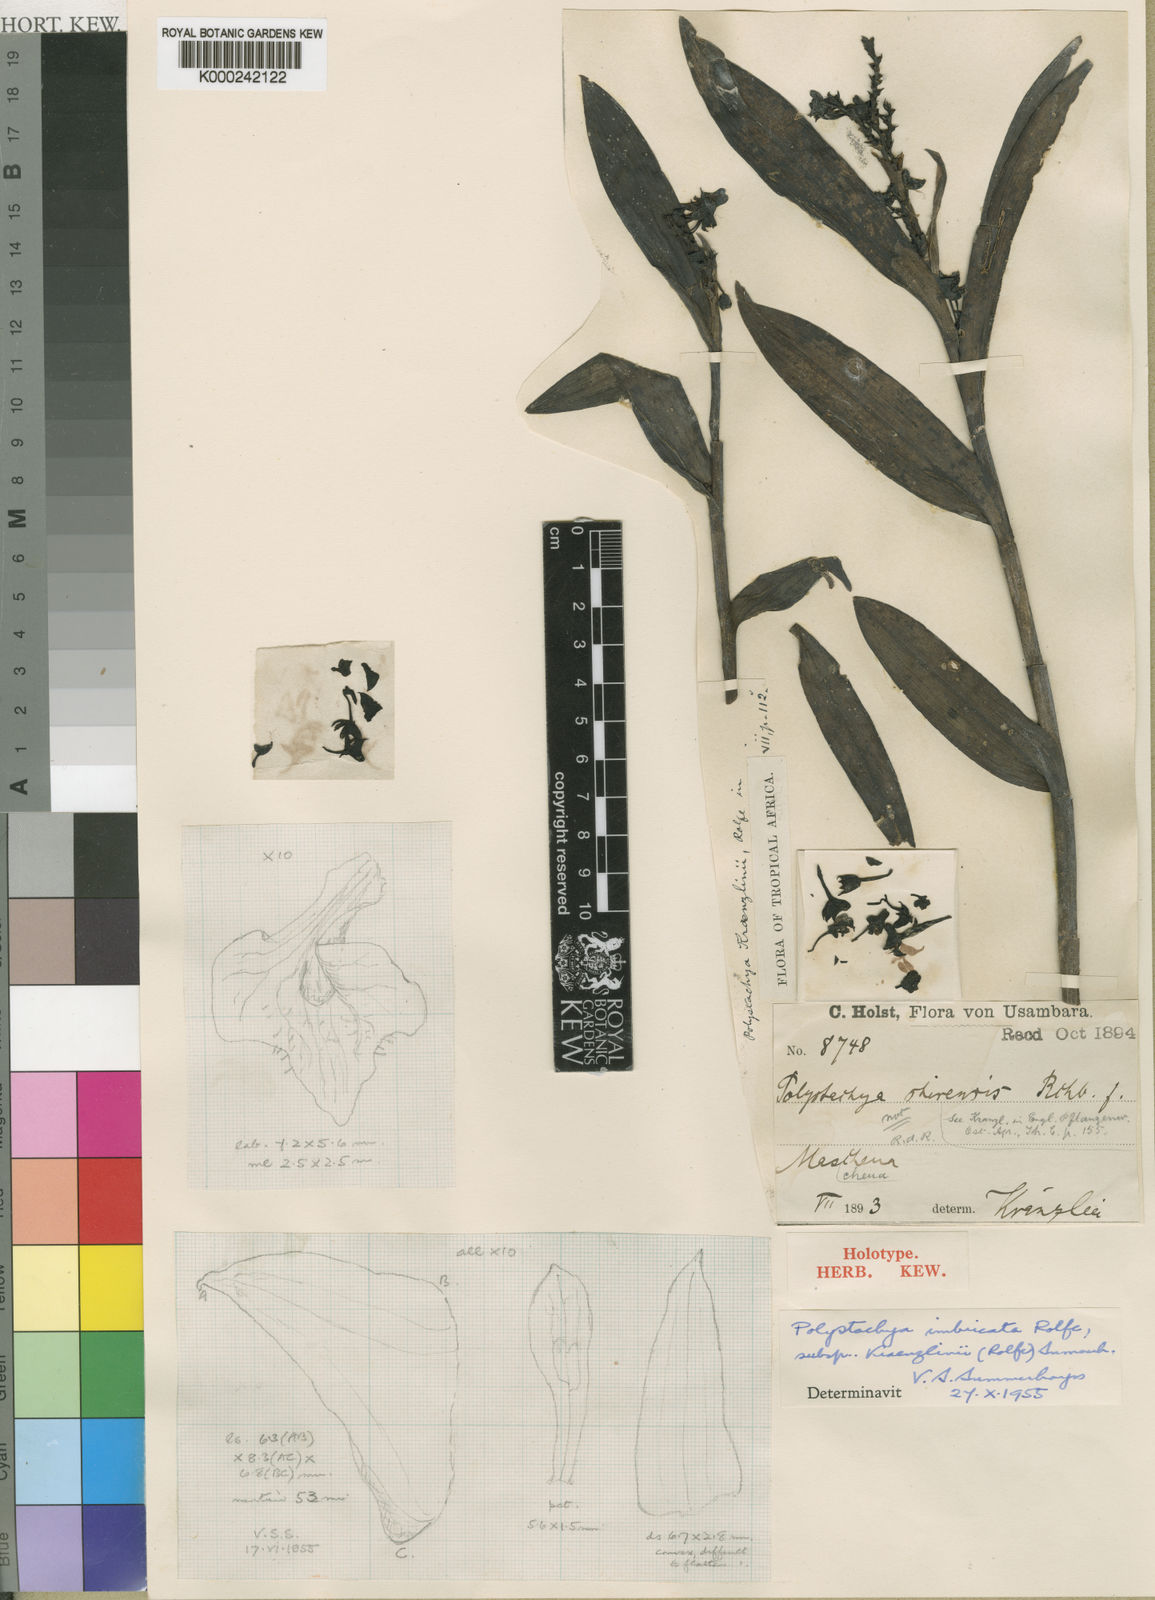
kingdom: Plantae
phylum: Tracheophyta
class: Liliopsida
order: Asparagales
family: Orchidaceae
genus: Polystachya
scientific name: Polystachya albescens
